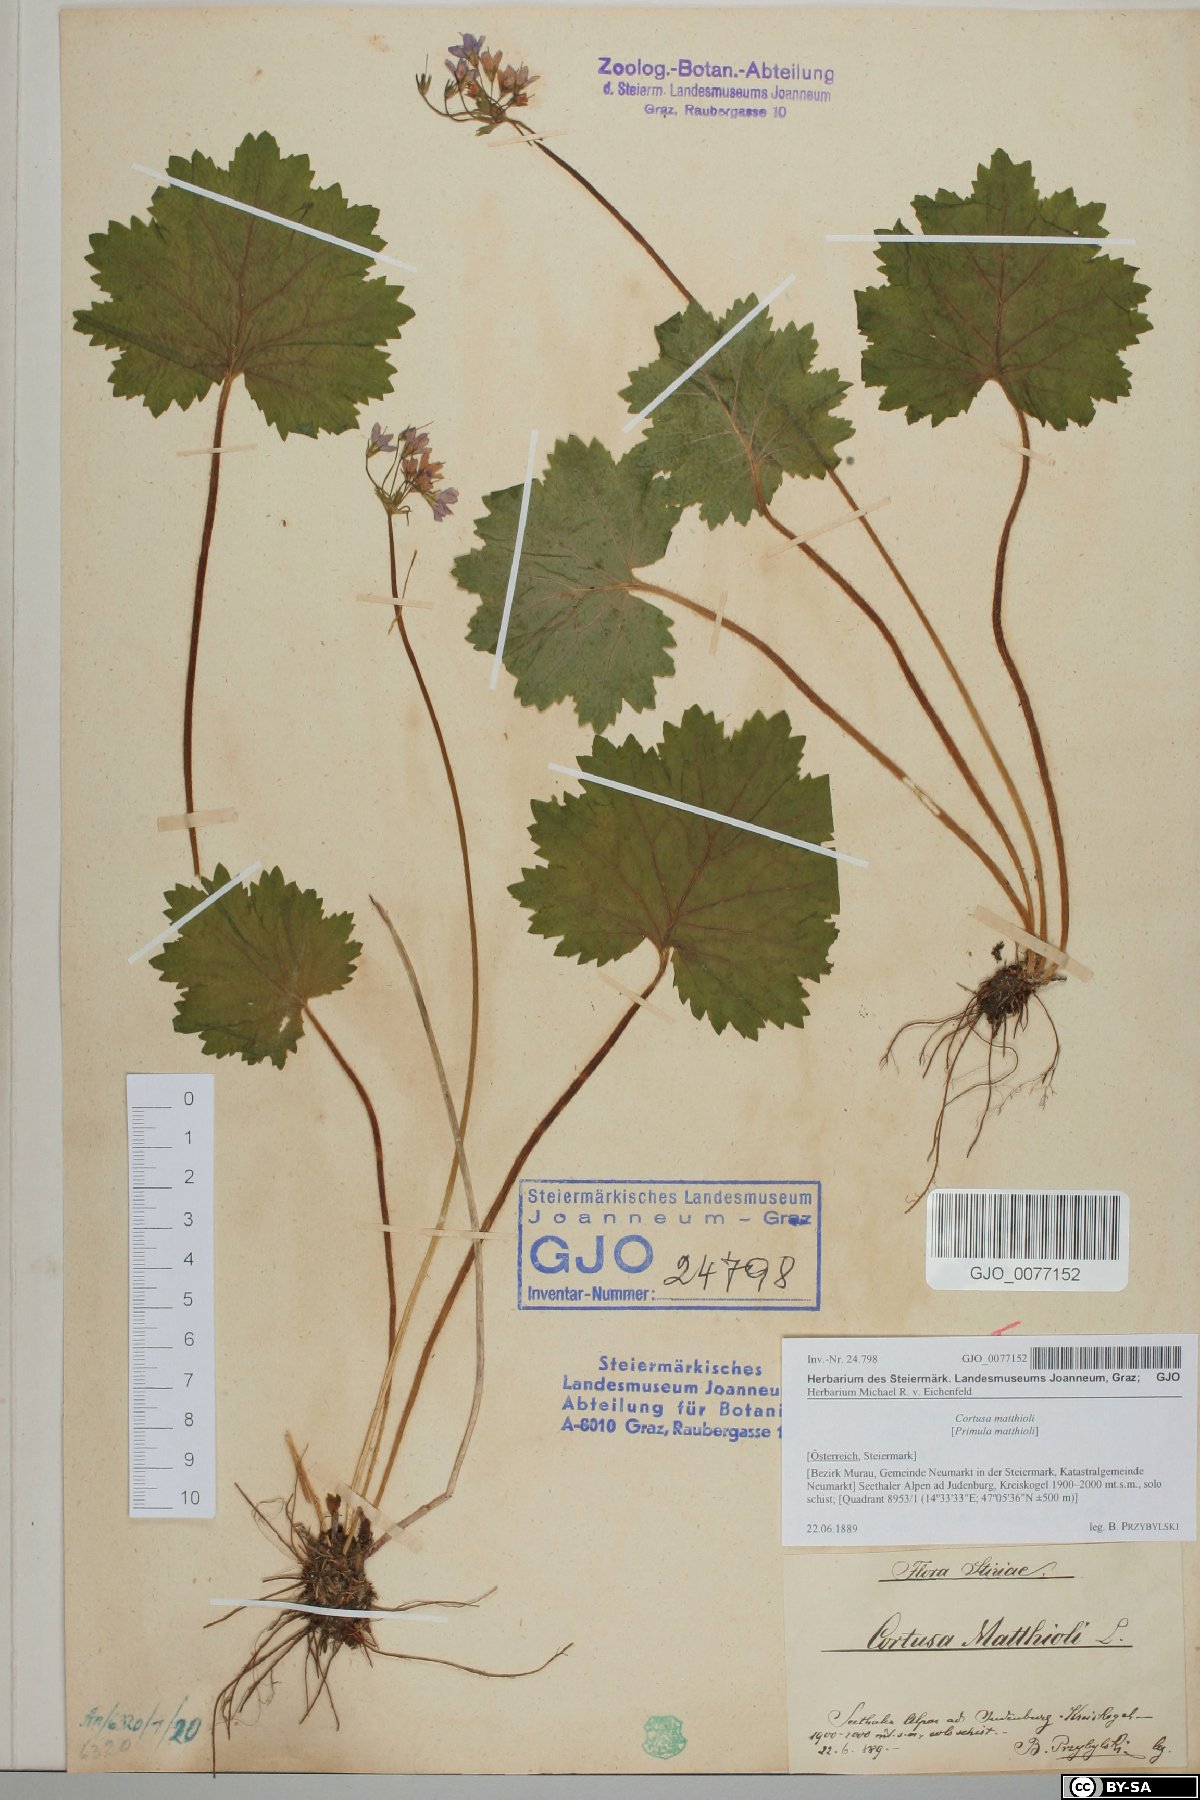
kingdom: Plantae
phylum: Tracheophyta
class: Magnoliopsida
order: Ericales
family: Primulaceae
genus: Primula
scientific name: Primula matthioli
